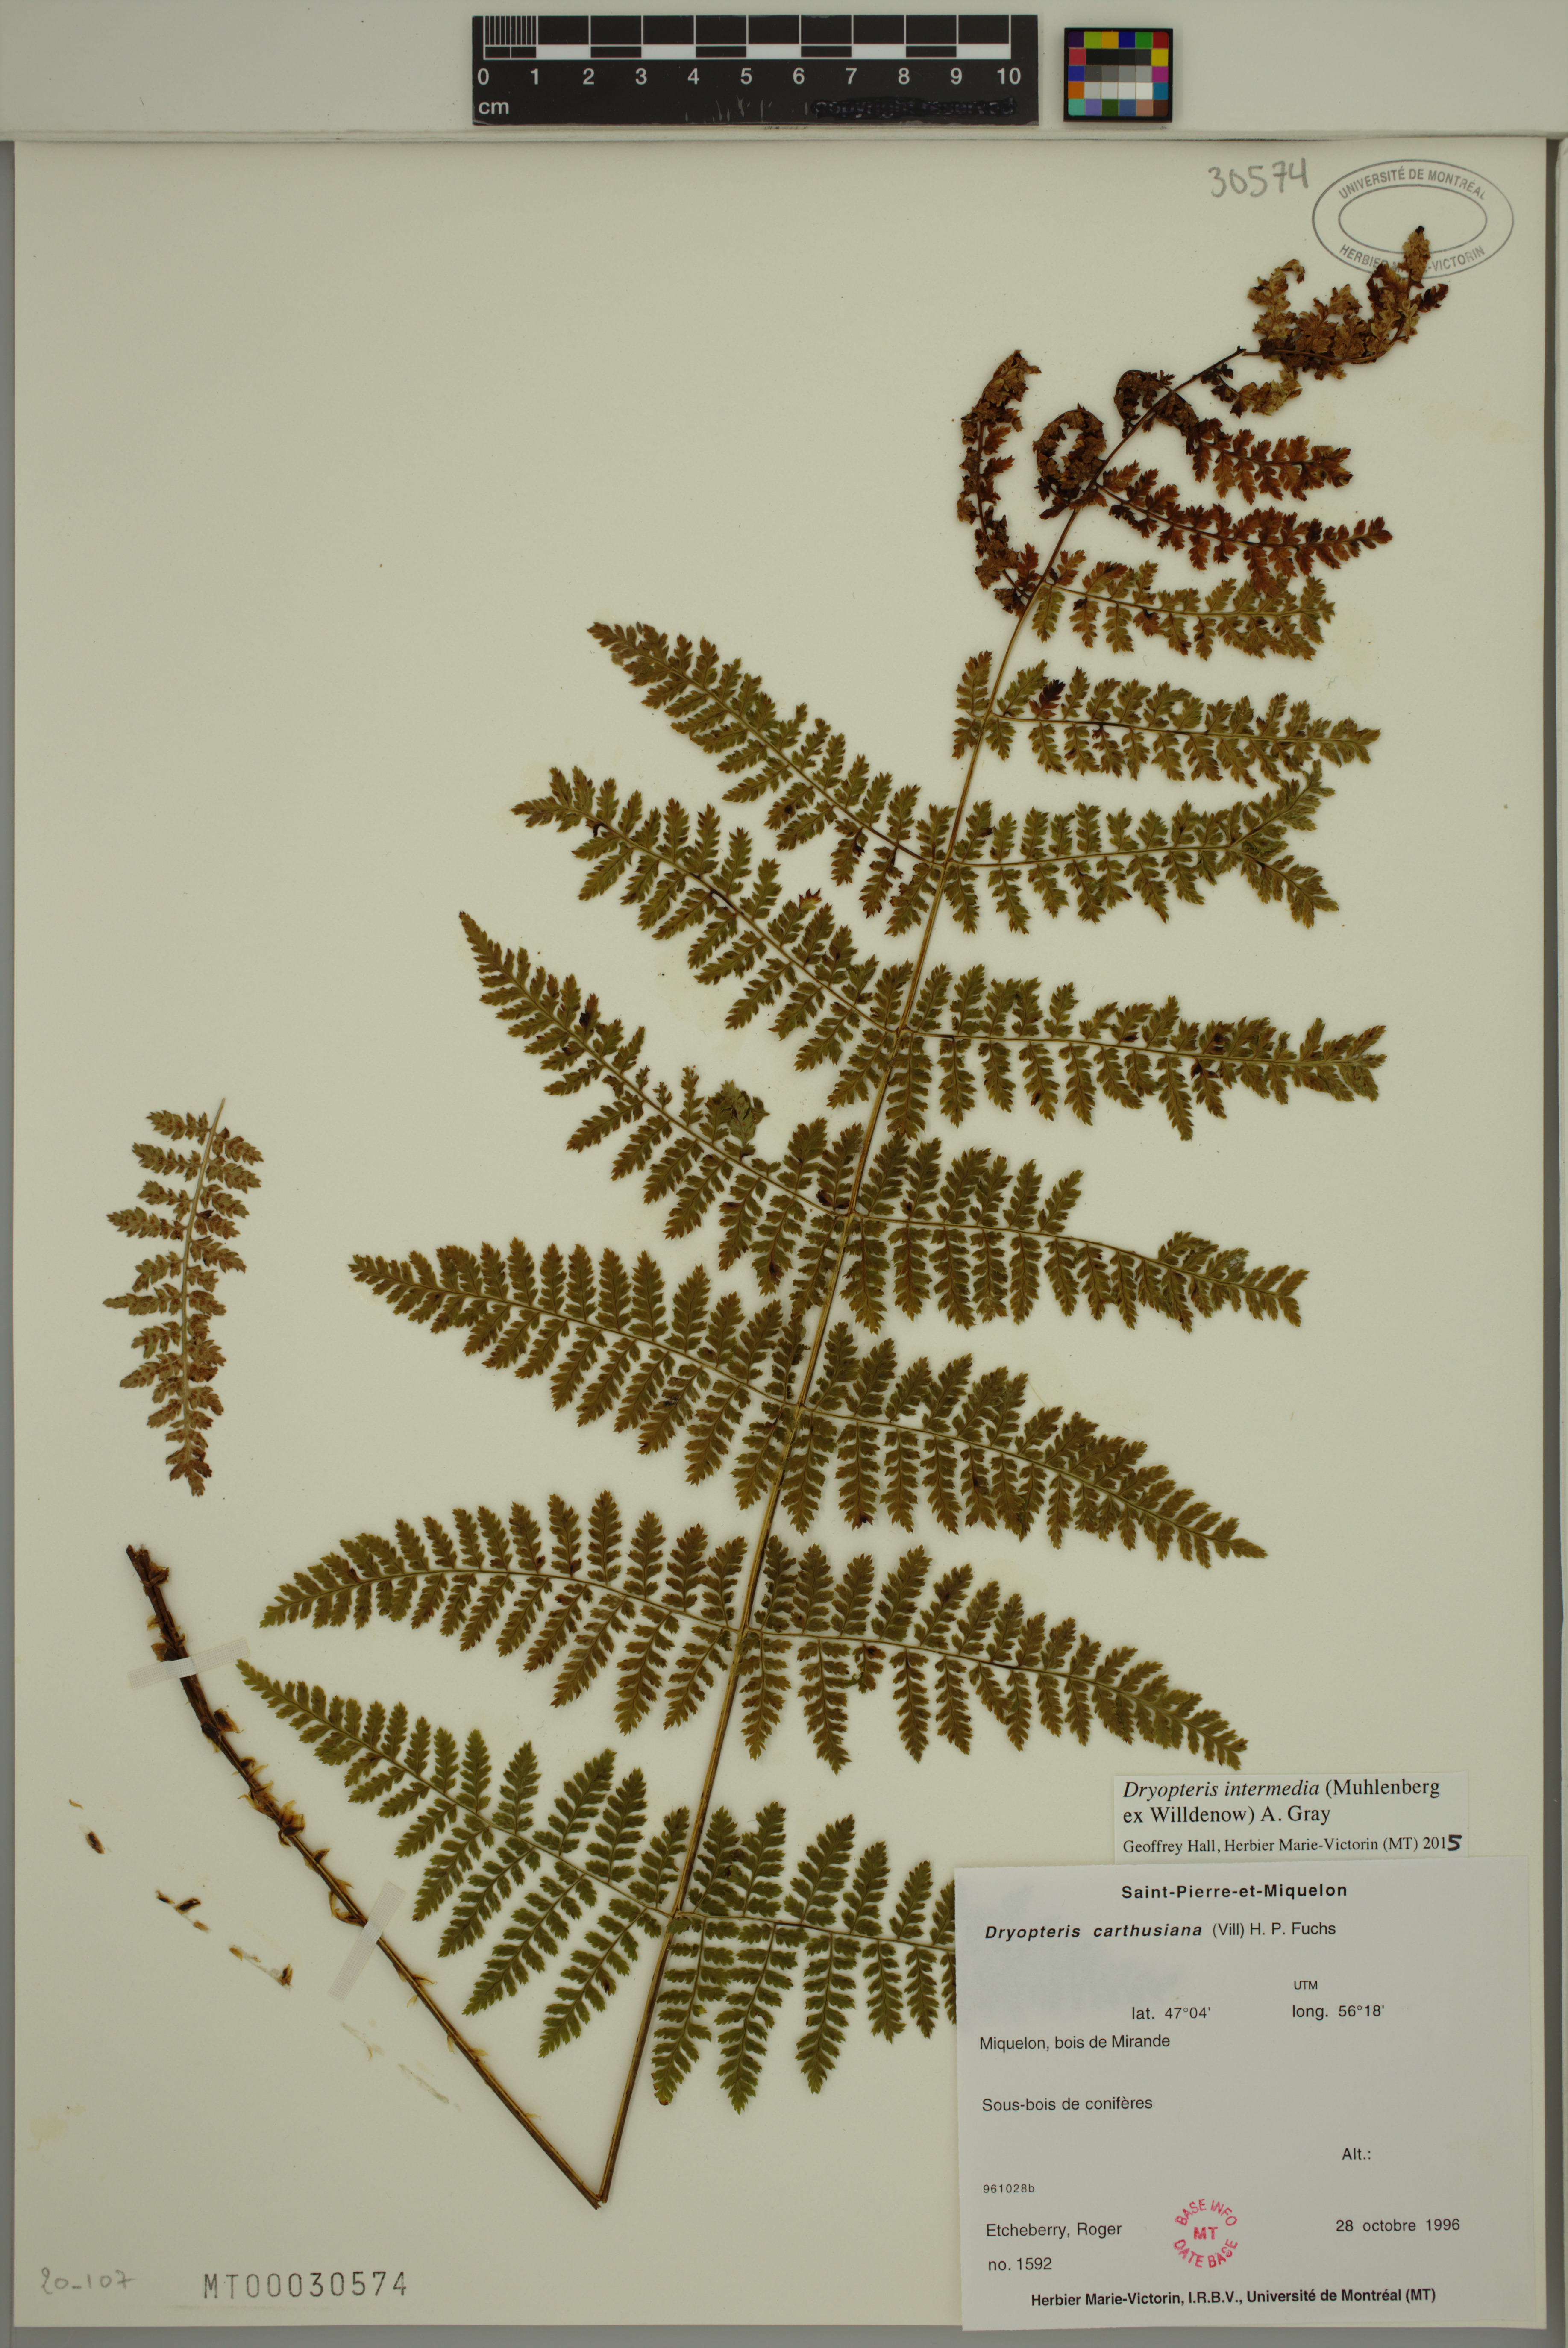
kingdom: Plantae
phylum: Tracheophyta
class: Polypodiopsida
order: Polypodiales
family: Dryopteridaceae
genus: Dryopteris
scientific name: Dryopteris intermedia
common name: Evergreen wood fern
